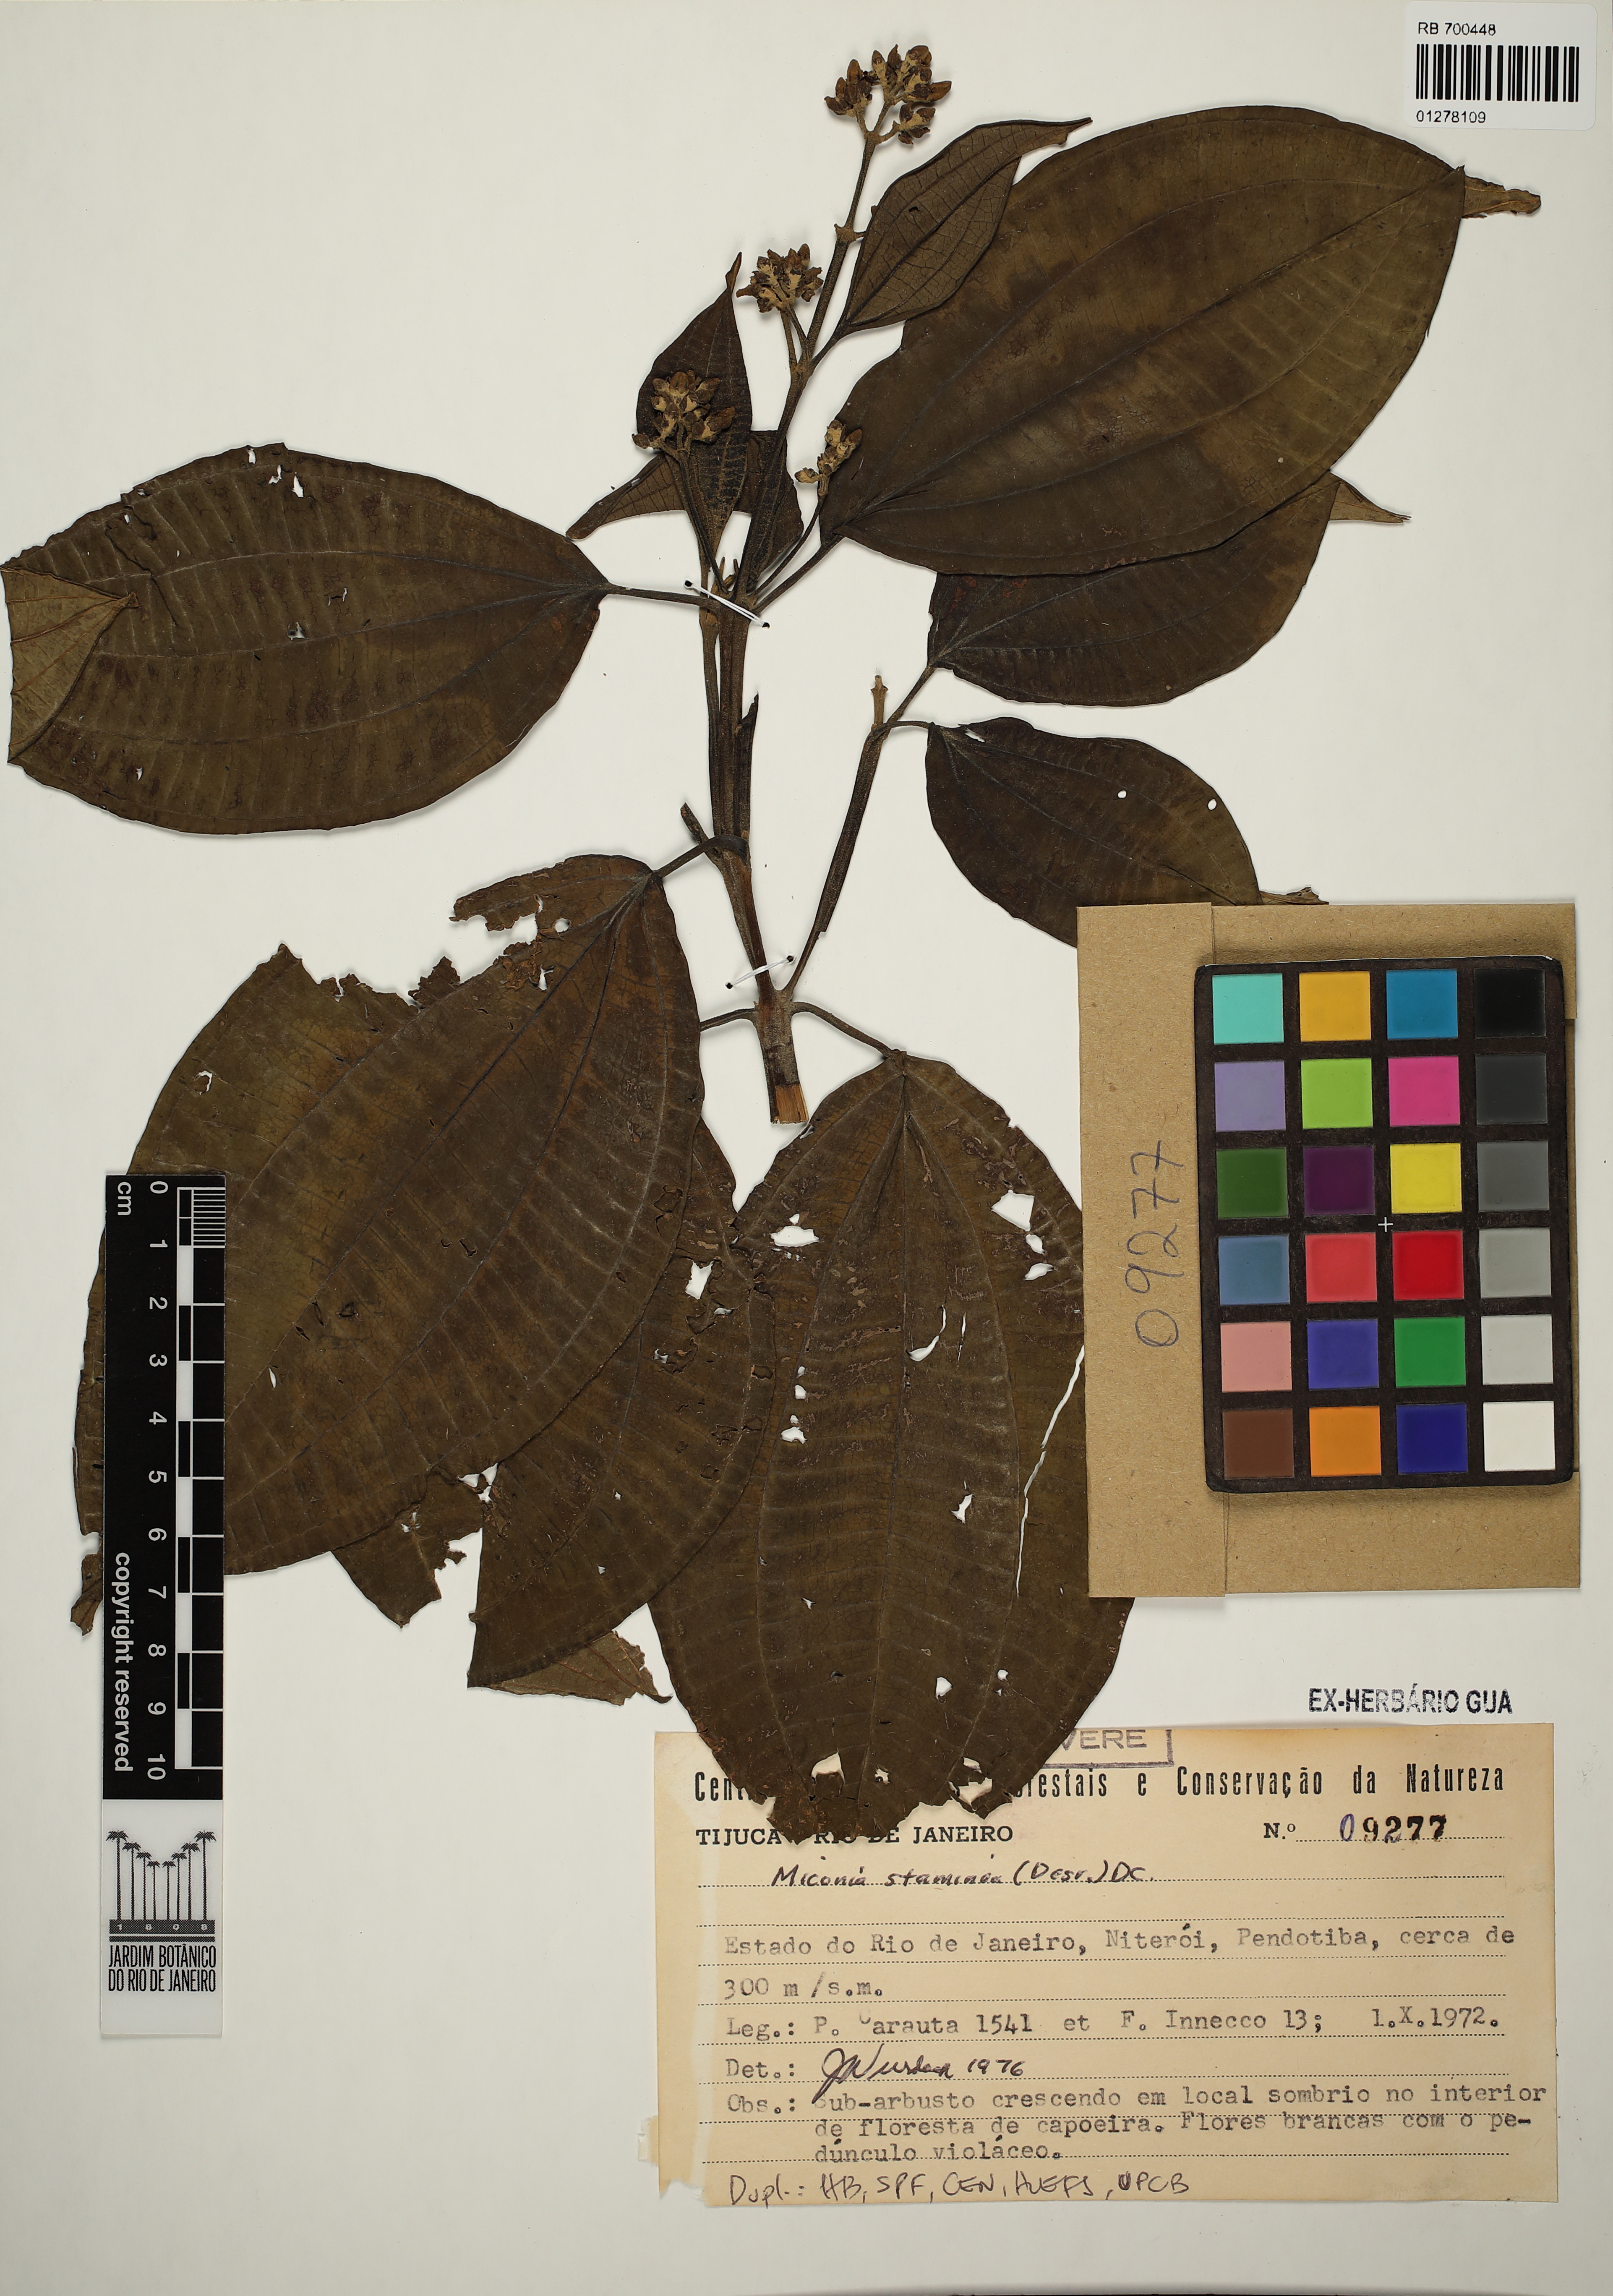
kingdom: Plantae
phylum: Tracheophyta
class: Magnoliopsida
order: Myrtales
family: Melastomataceae
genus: Miconia
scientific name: Miconia staminea
